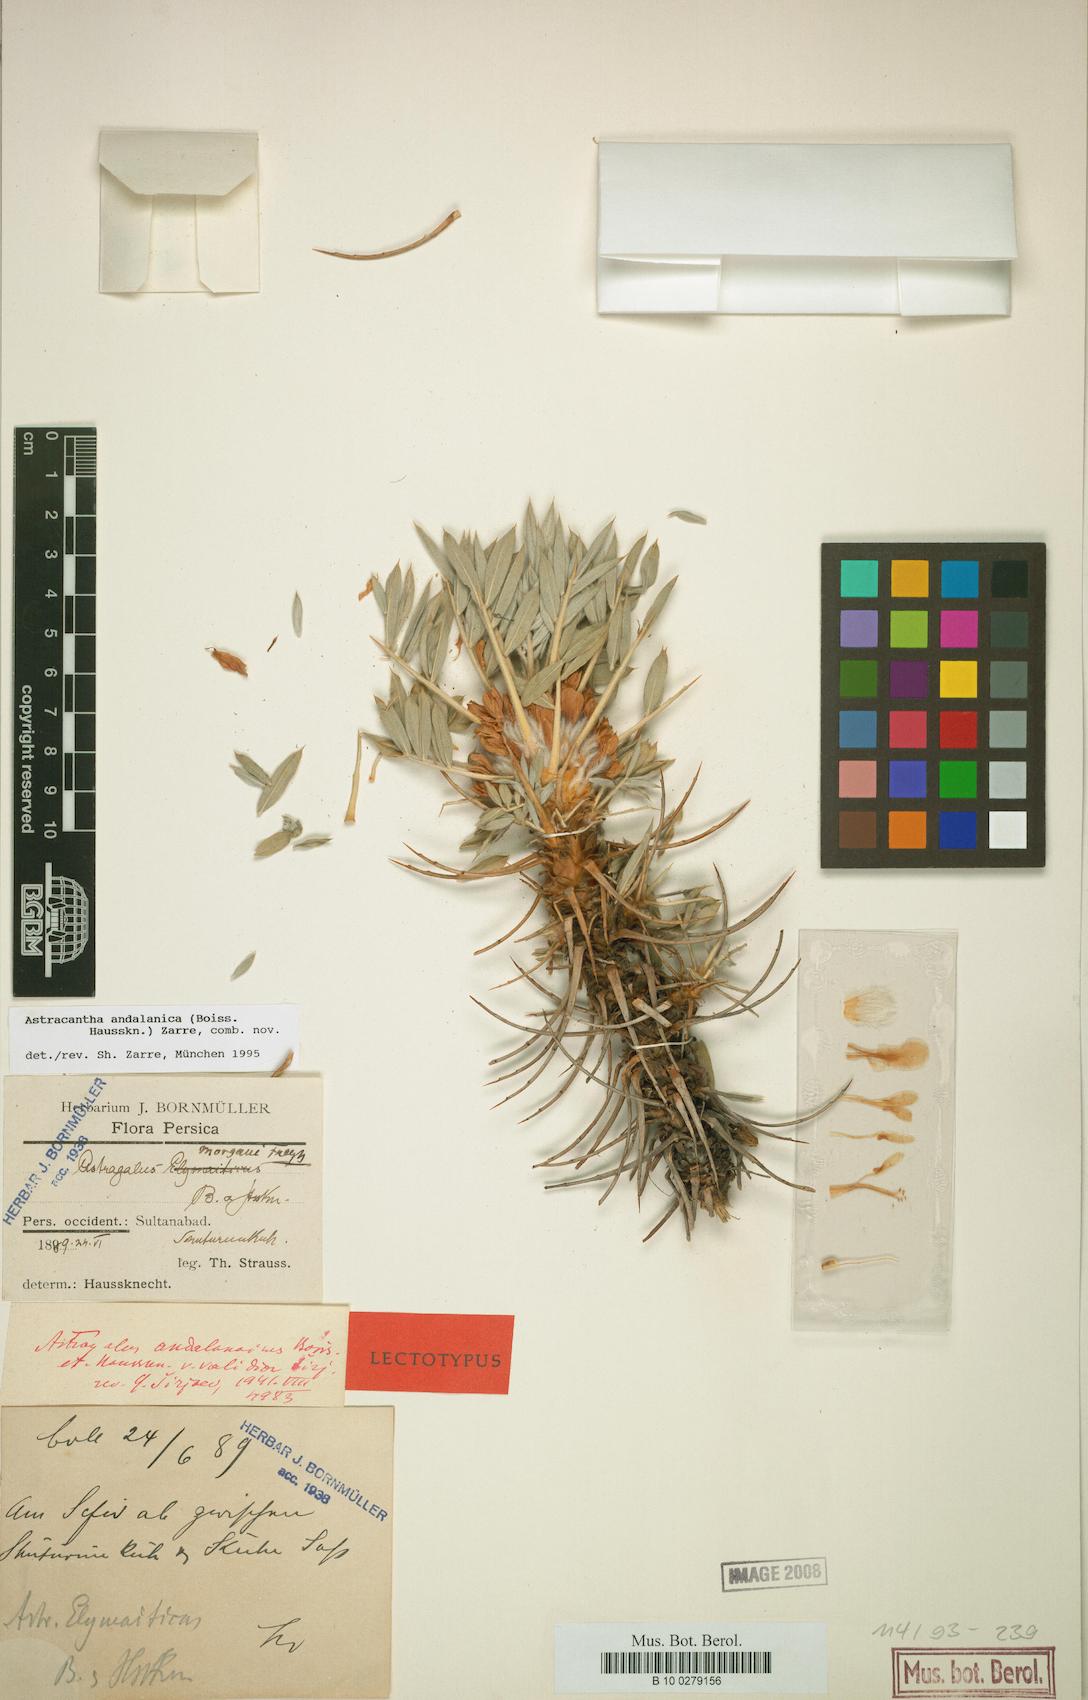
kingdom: Chromista
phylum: Cercozoa
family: Astracanthidae
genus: Astracantha
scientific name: Astracantha
